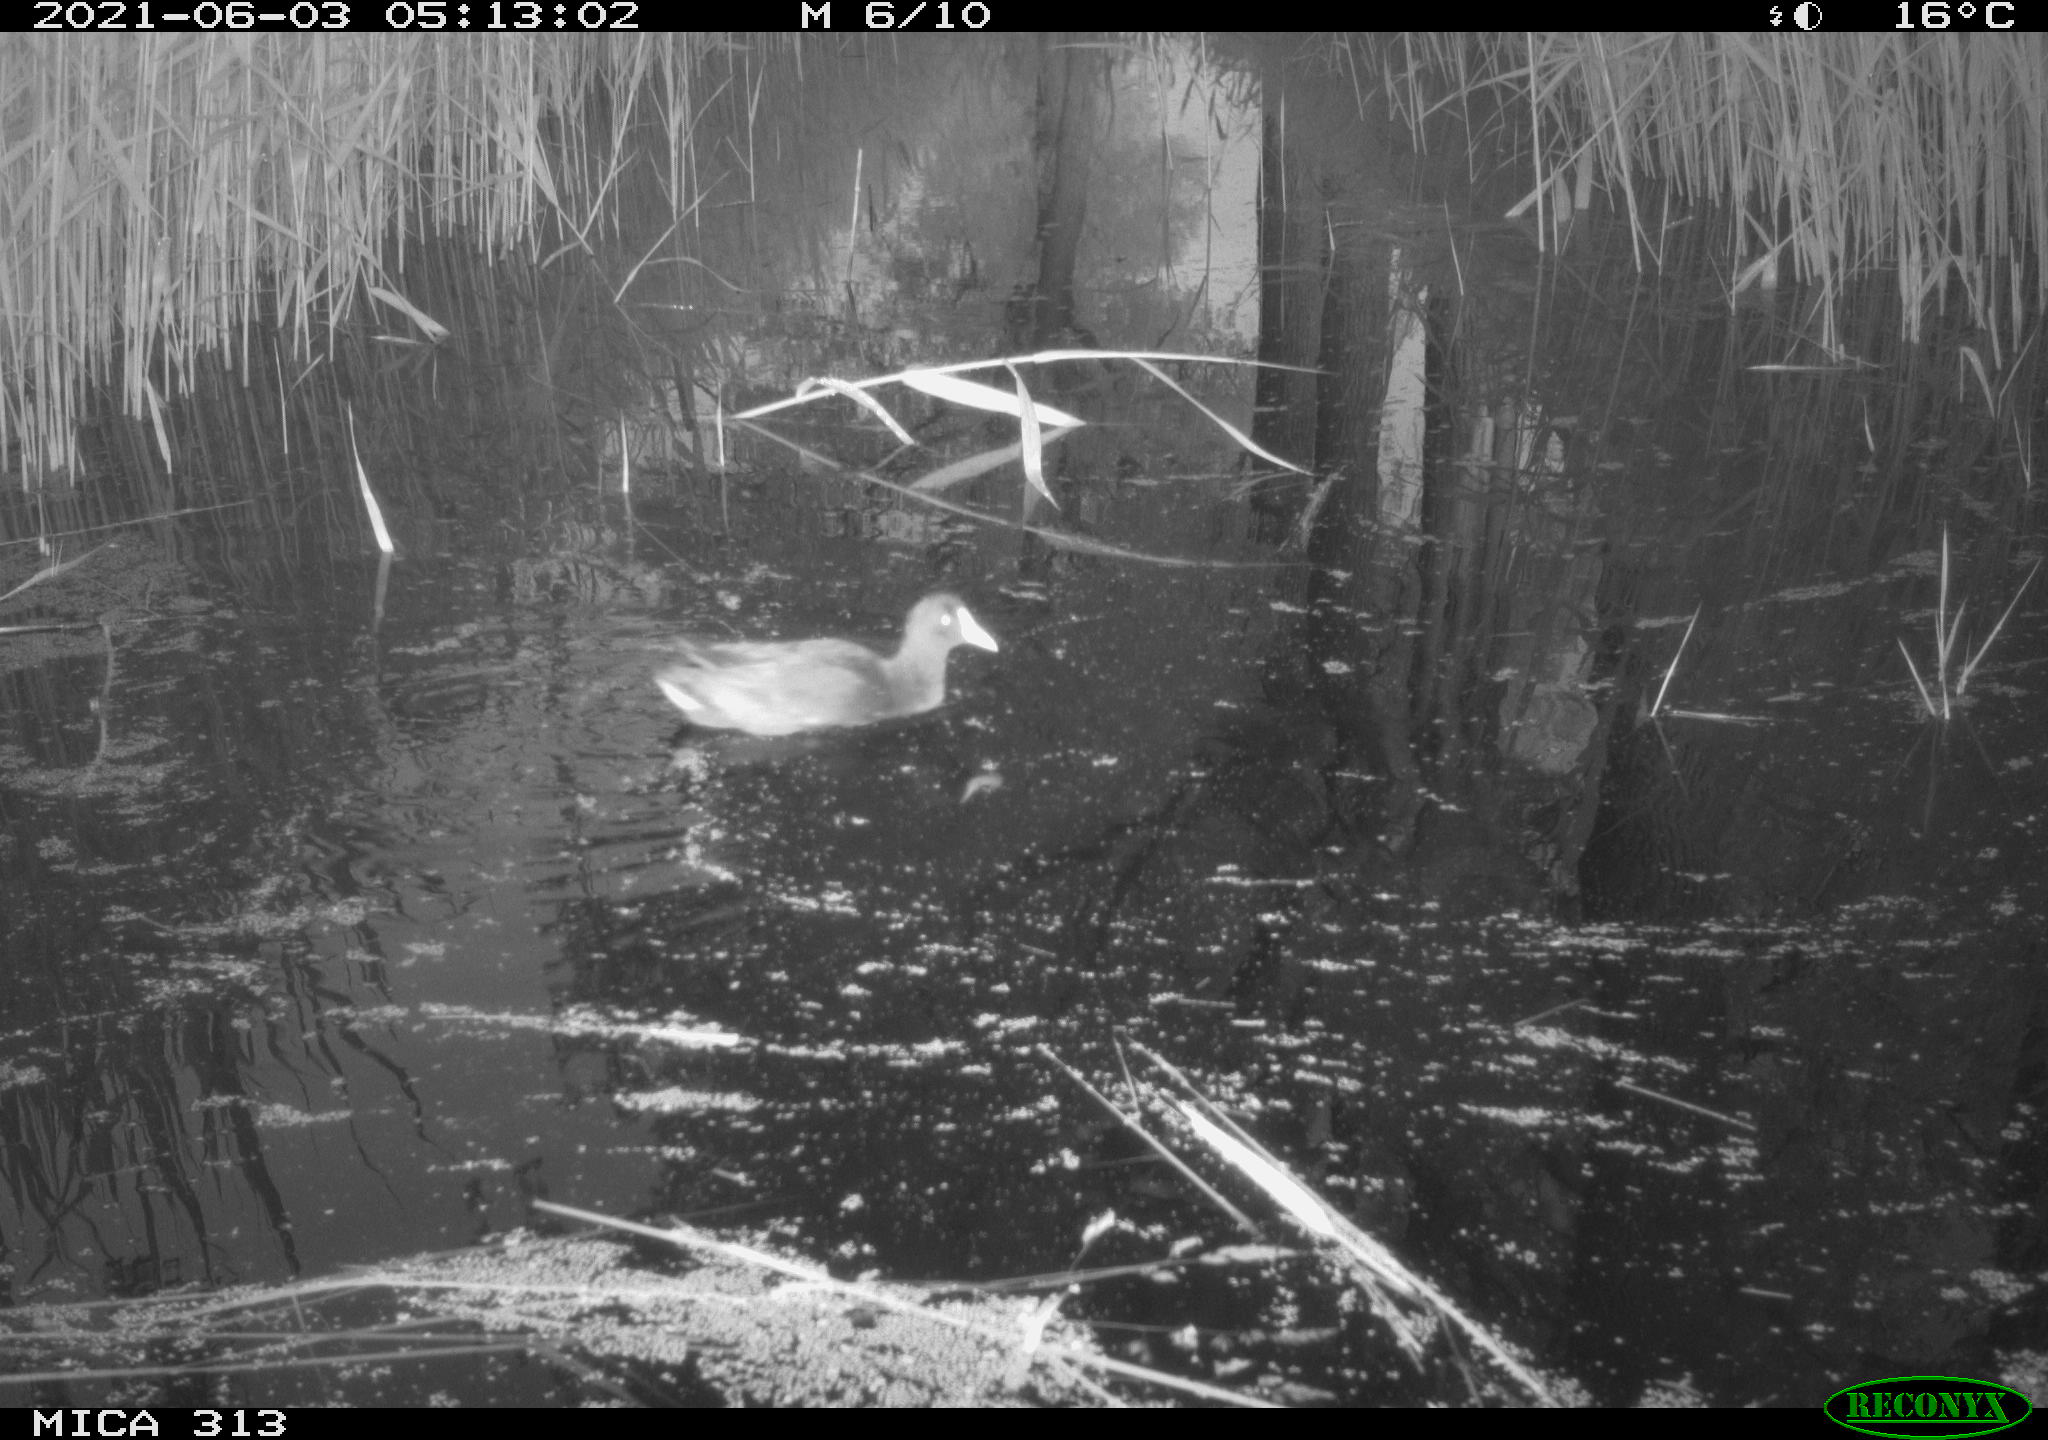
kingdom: Animalia
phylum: Chordata
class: Aves
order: Gruiformes
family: Rallidae
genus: Gallinula
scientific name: Gallinula chloropus
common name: Common moorhen
